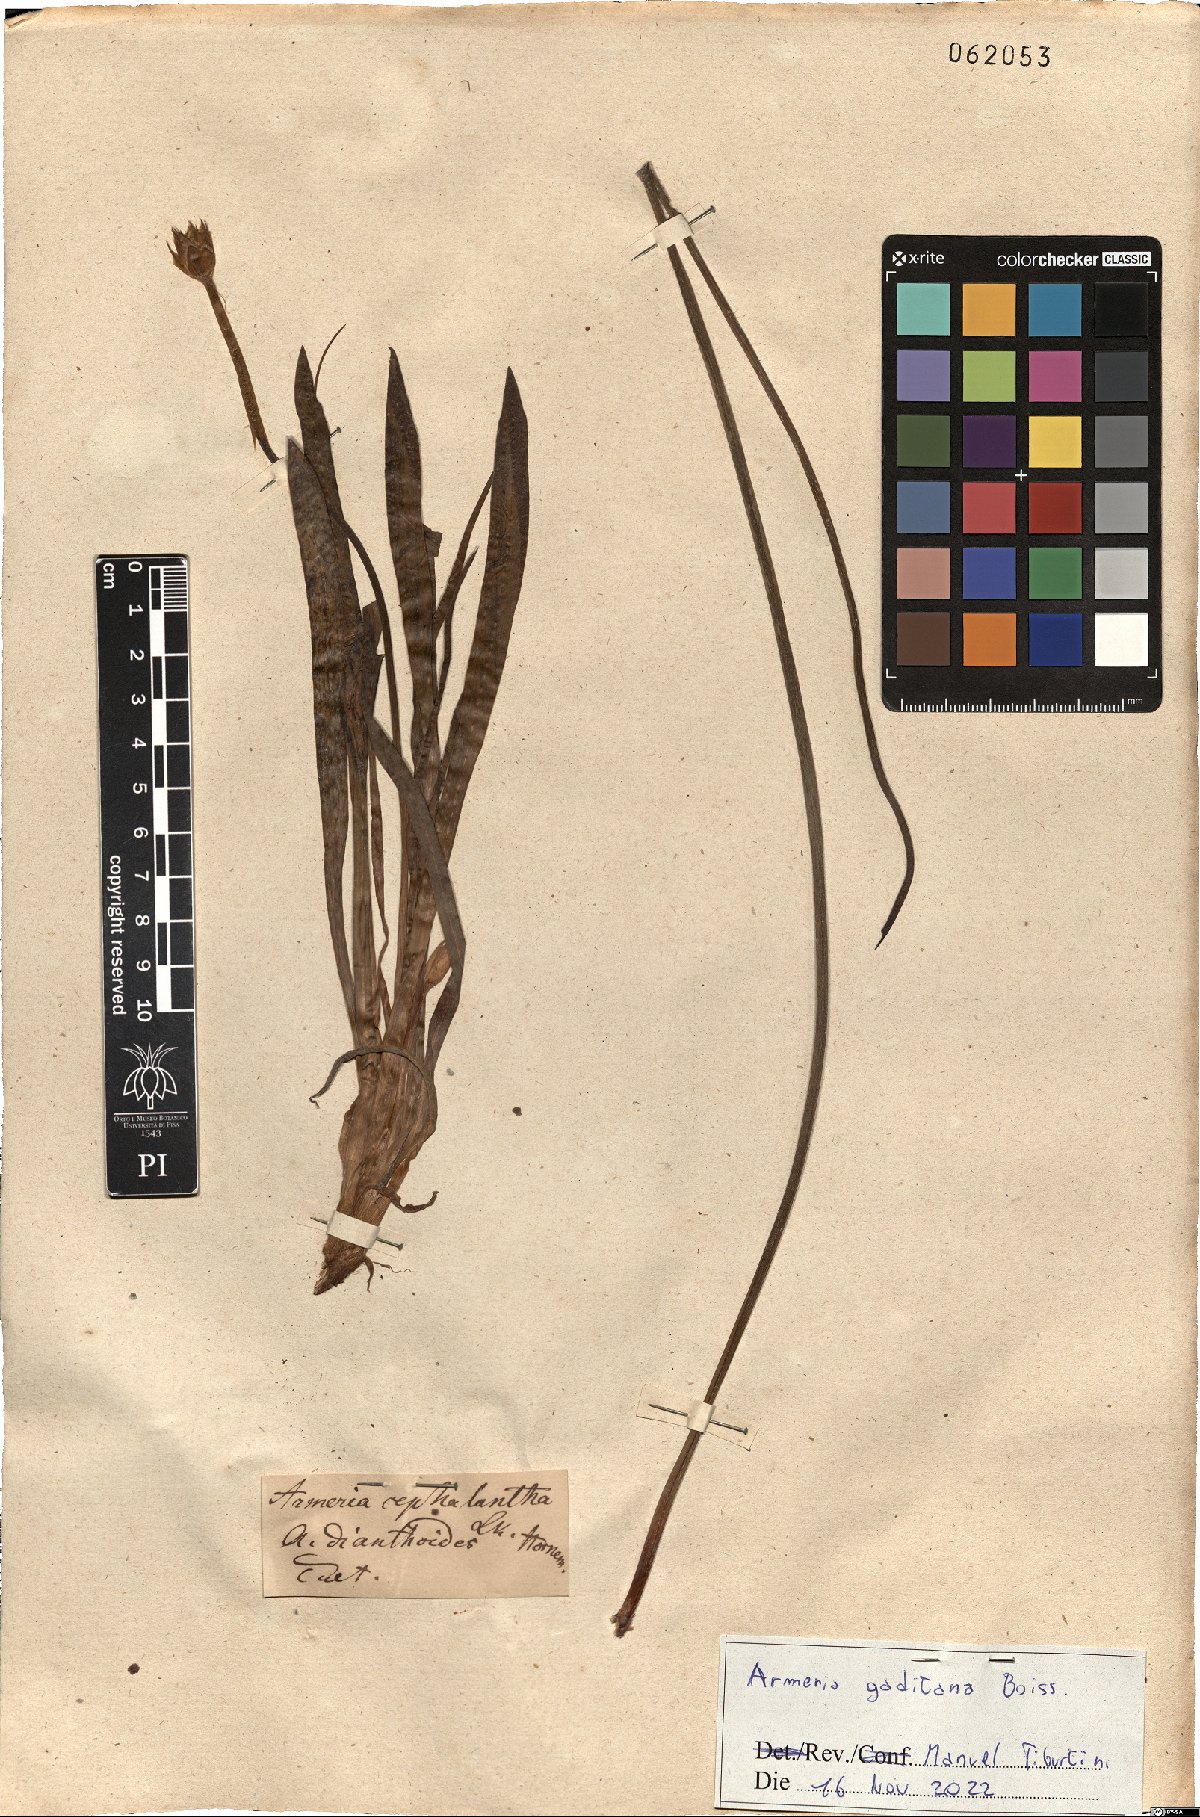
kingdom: Plantae
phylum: Tracheophyta
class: Magnoliopsida
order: Caryophyllales
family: Plumbaginaceae
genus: Armeria
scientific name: Armeria gaditana
